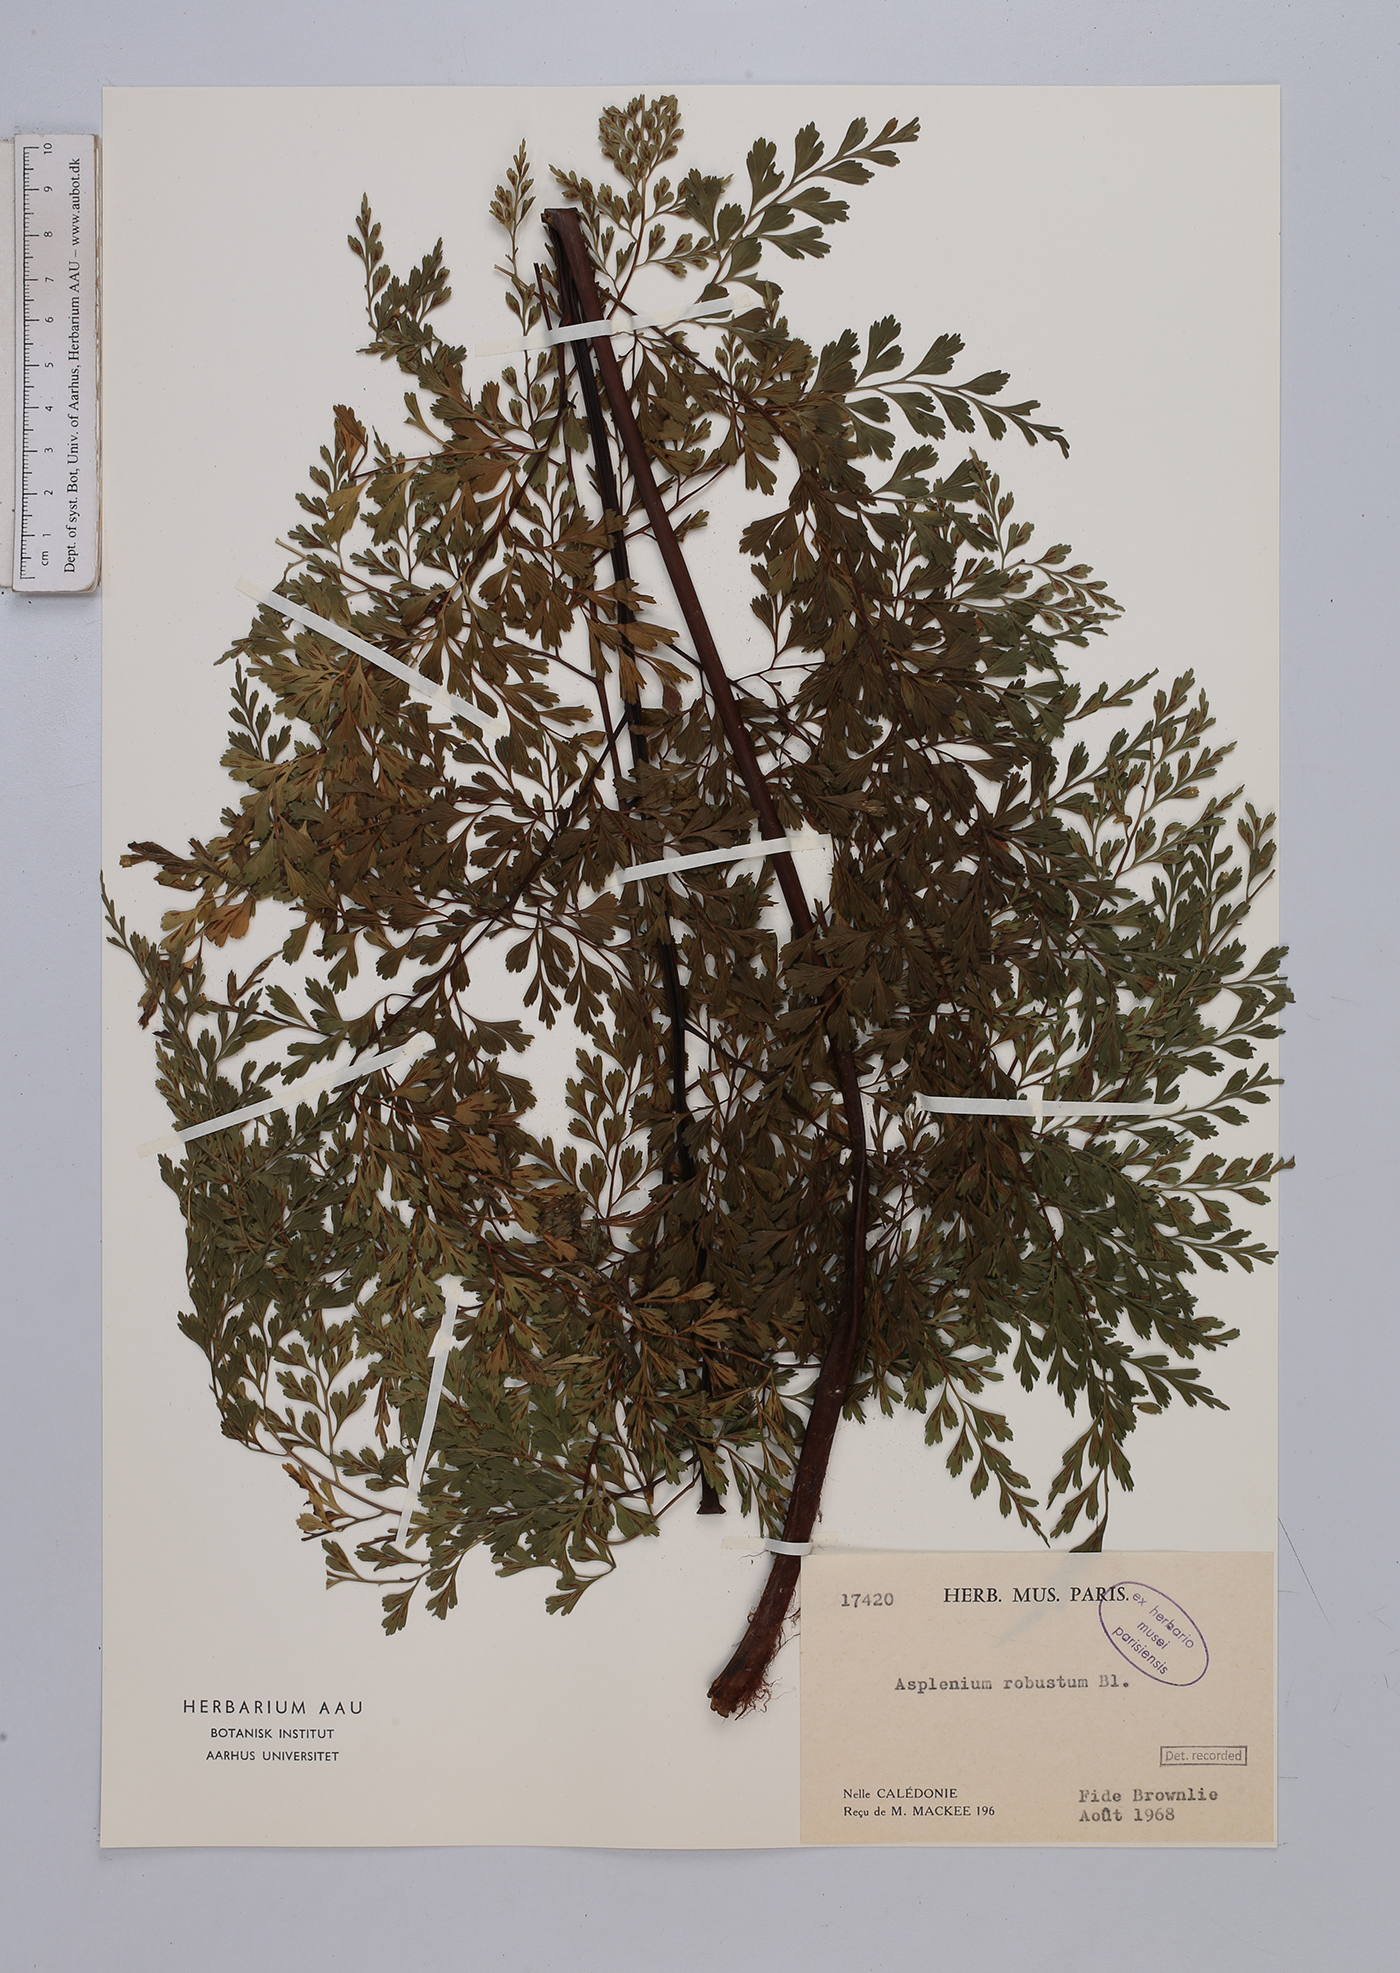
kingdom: Plantae
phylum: Tracheophyta
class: Polypodiopsida
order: Polypodiales
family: Aspleniaceae
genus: Asplenium
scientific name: Asplenium laserpitiifolium
